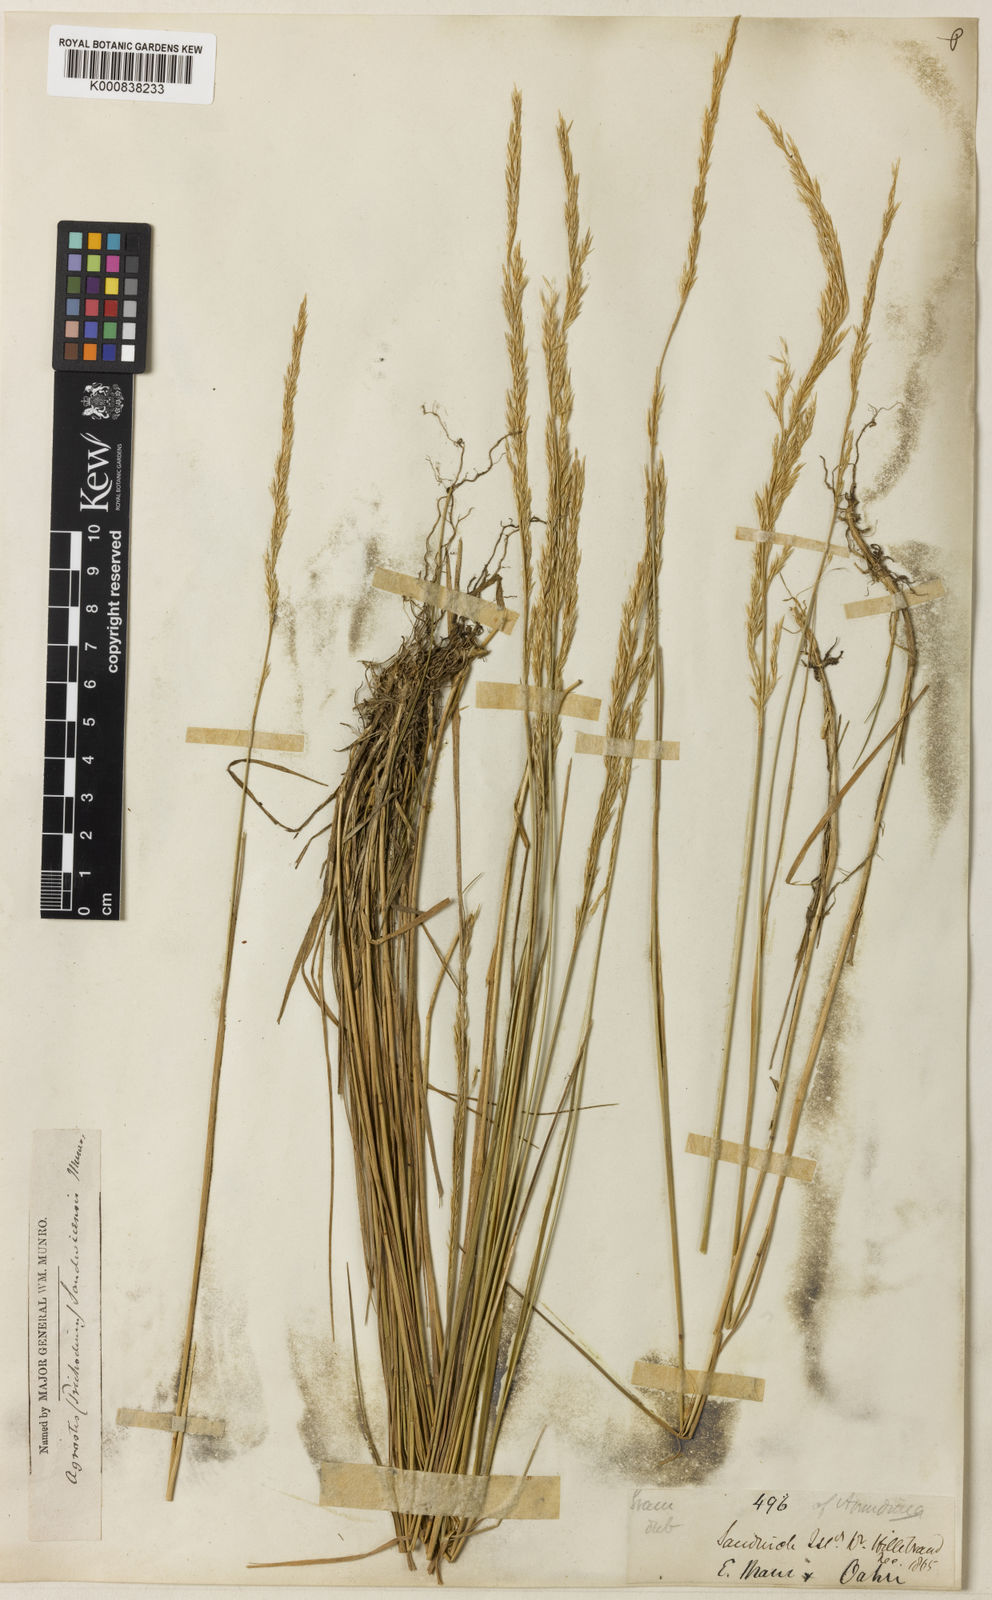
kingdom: Plantae
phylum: Tracheophyta
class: Liliopsida
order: Poales
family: Poaceae
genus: Agrostis
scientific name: Agrostis
